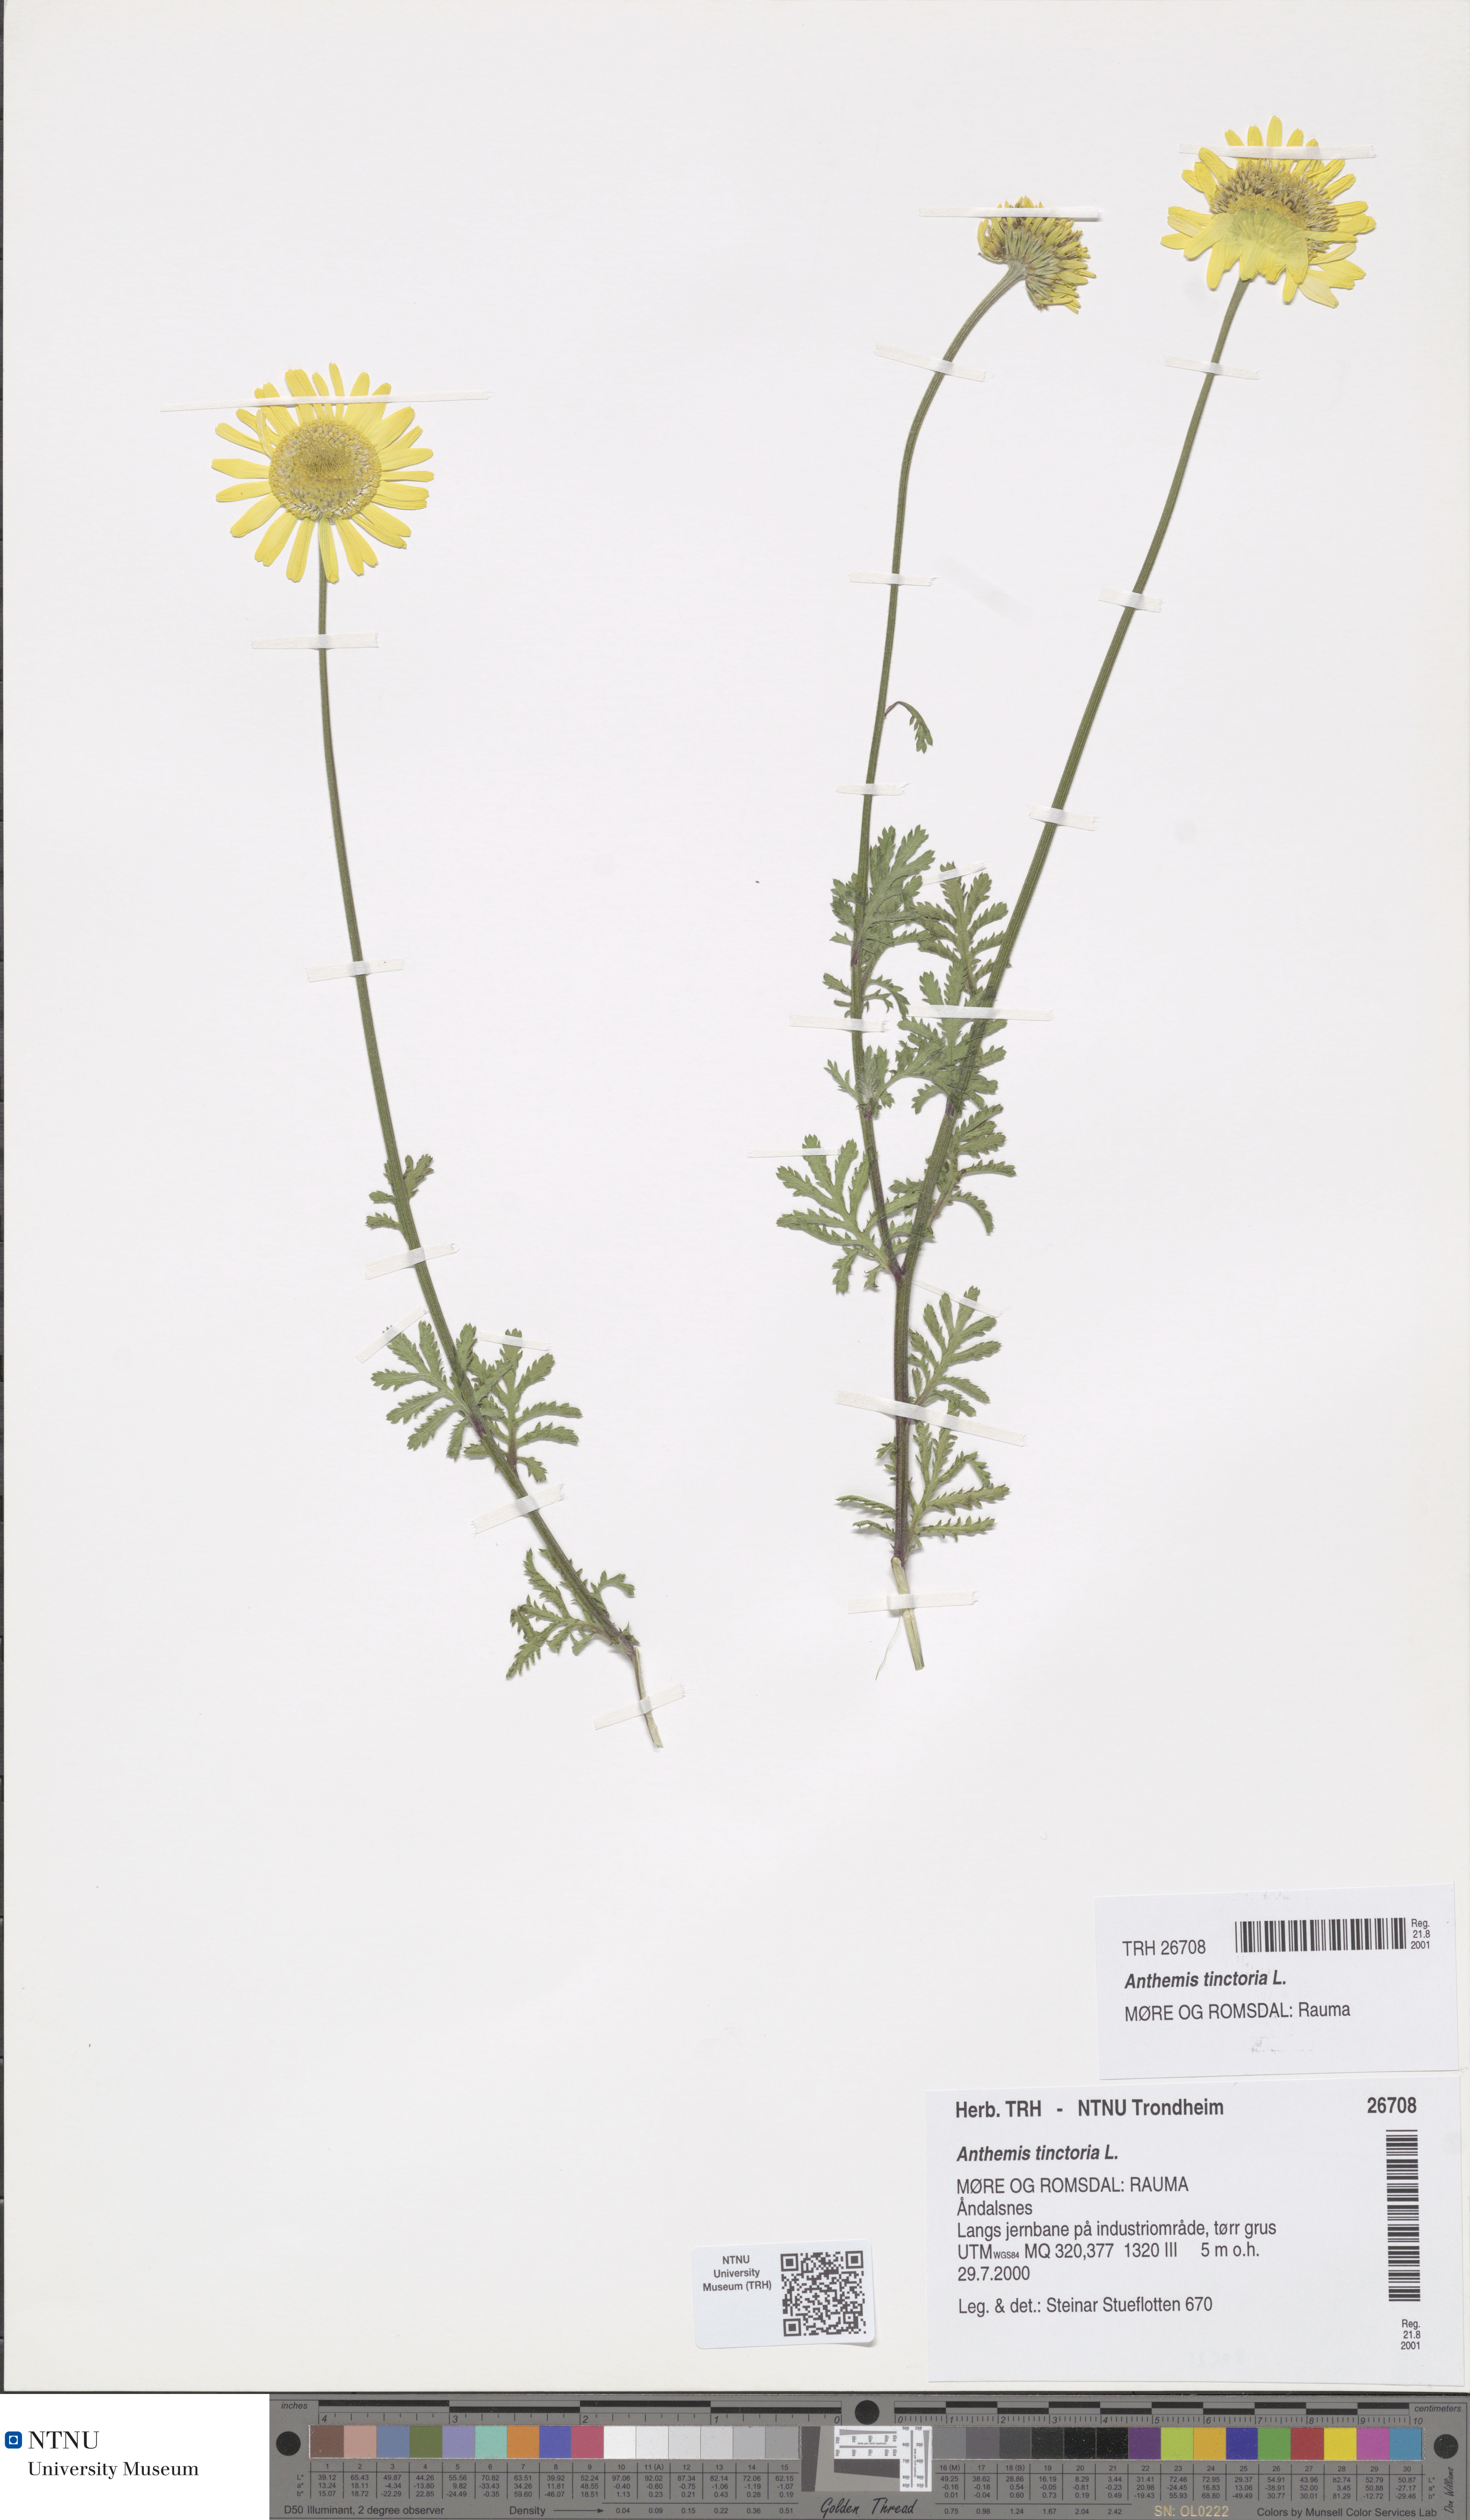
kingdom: Plantae
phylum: Tracheophyta
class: Magnoliopsida
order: Asterales
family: Asteraceae
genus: Cota
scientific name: Cota tinctoria
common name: Golden chamomile
